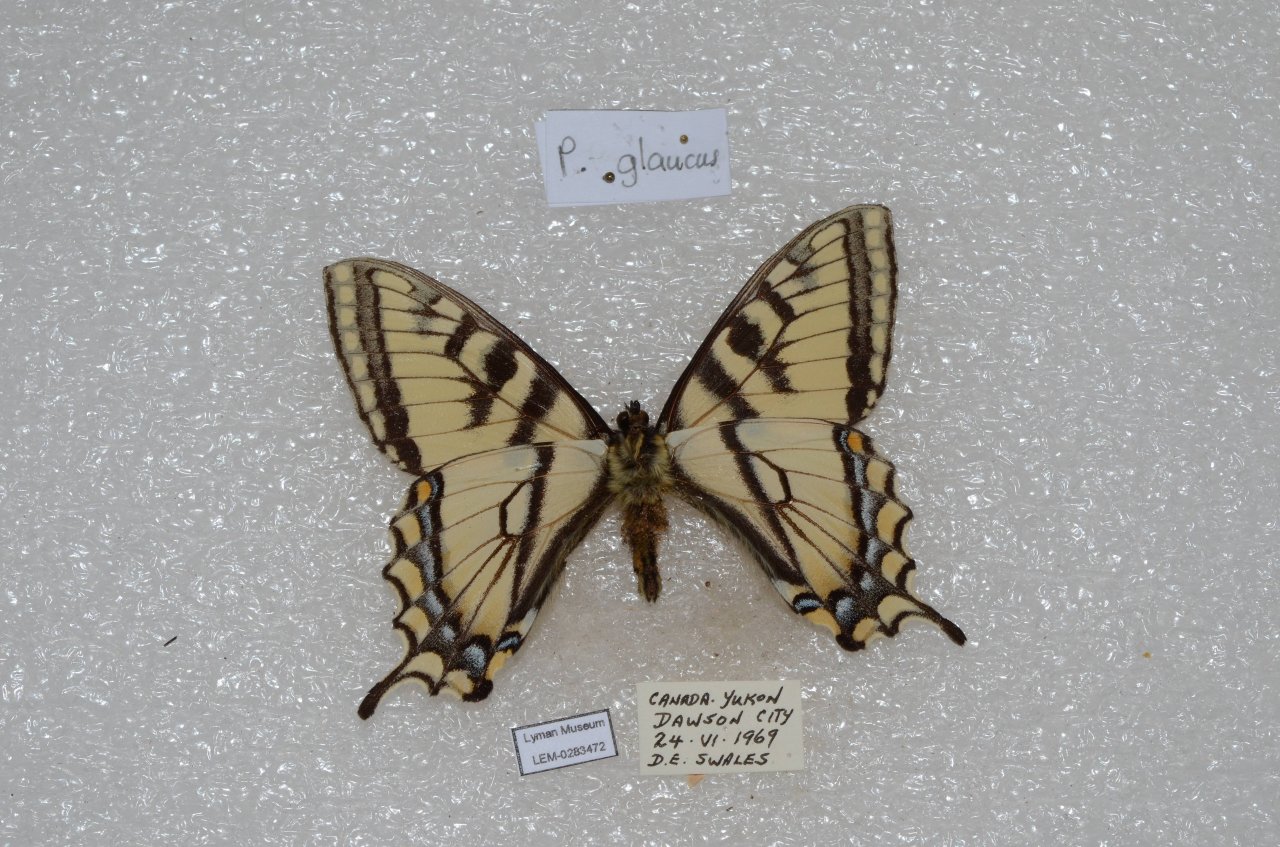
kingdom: Animalia
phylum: Arthropoda
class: Insecta
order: Lepidoptera
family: Papilionidae
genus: Pterourus
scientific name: Pterourus canadensis
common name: Canadian Tiger Swallowtail
